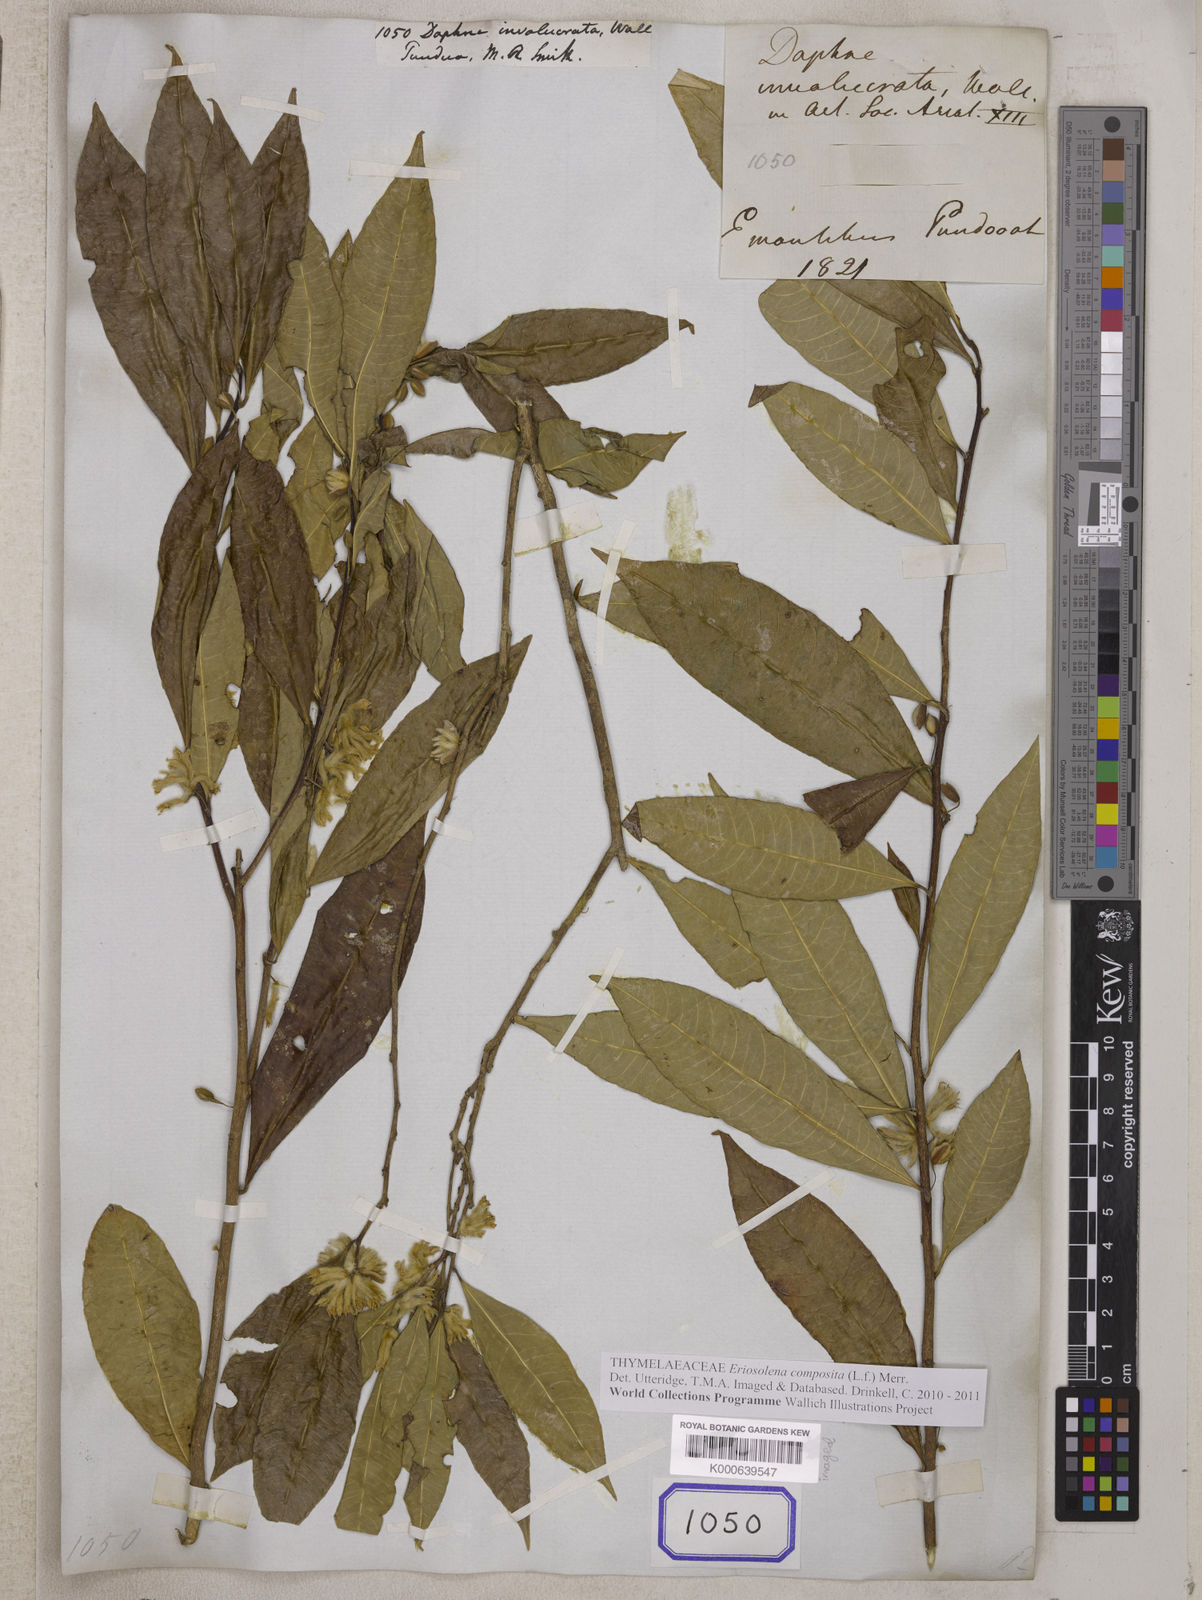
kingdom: Plantae
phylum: Tracheophyta
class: Magnoliopsida
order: Malvales
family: Thymelaeaceae
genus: Daphne
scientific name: Daphne composita
